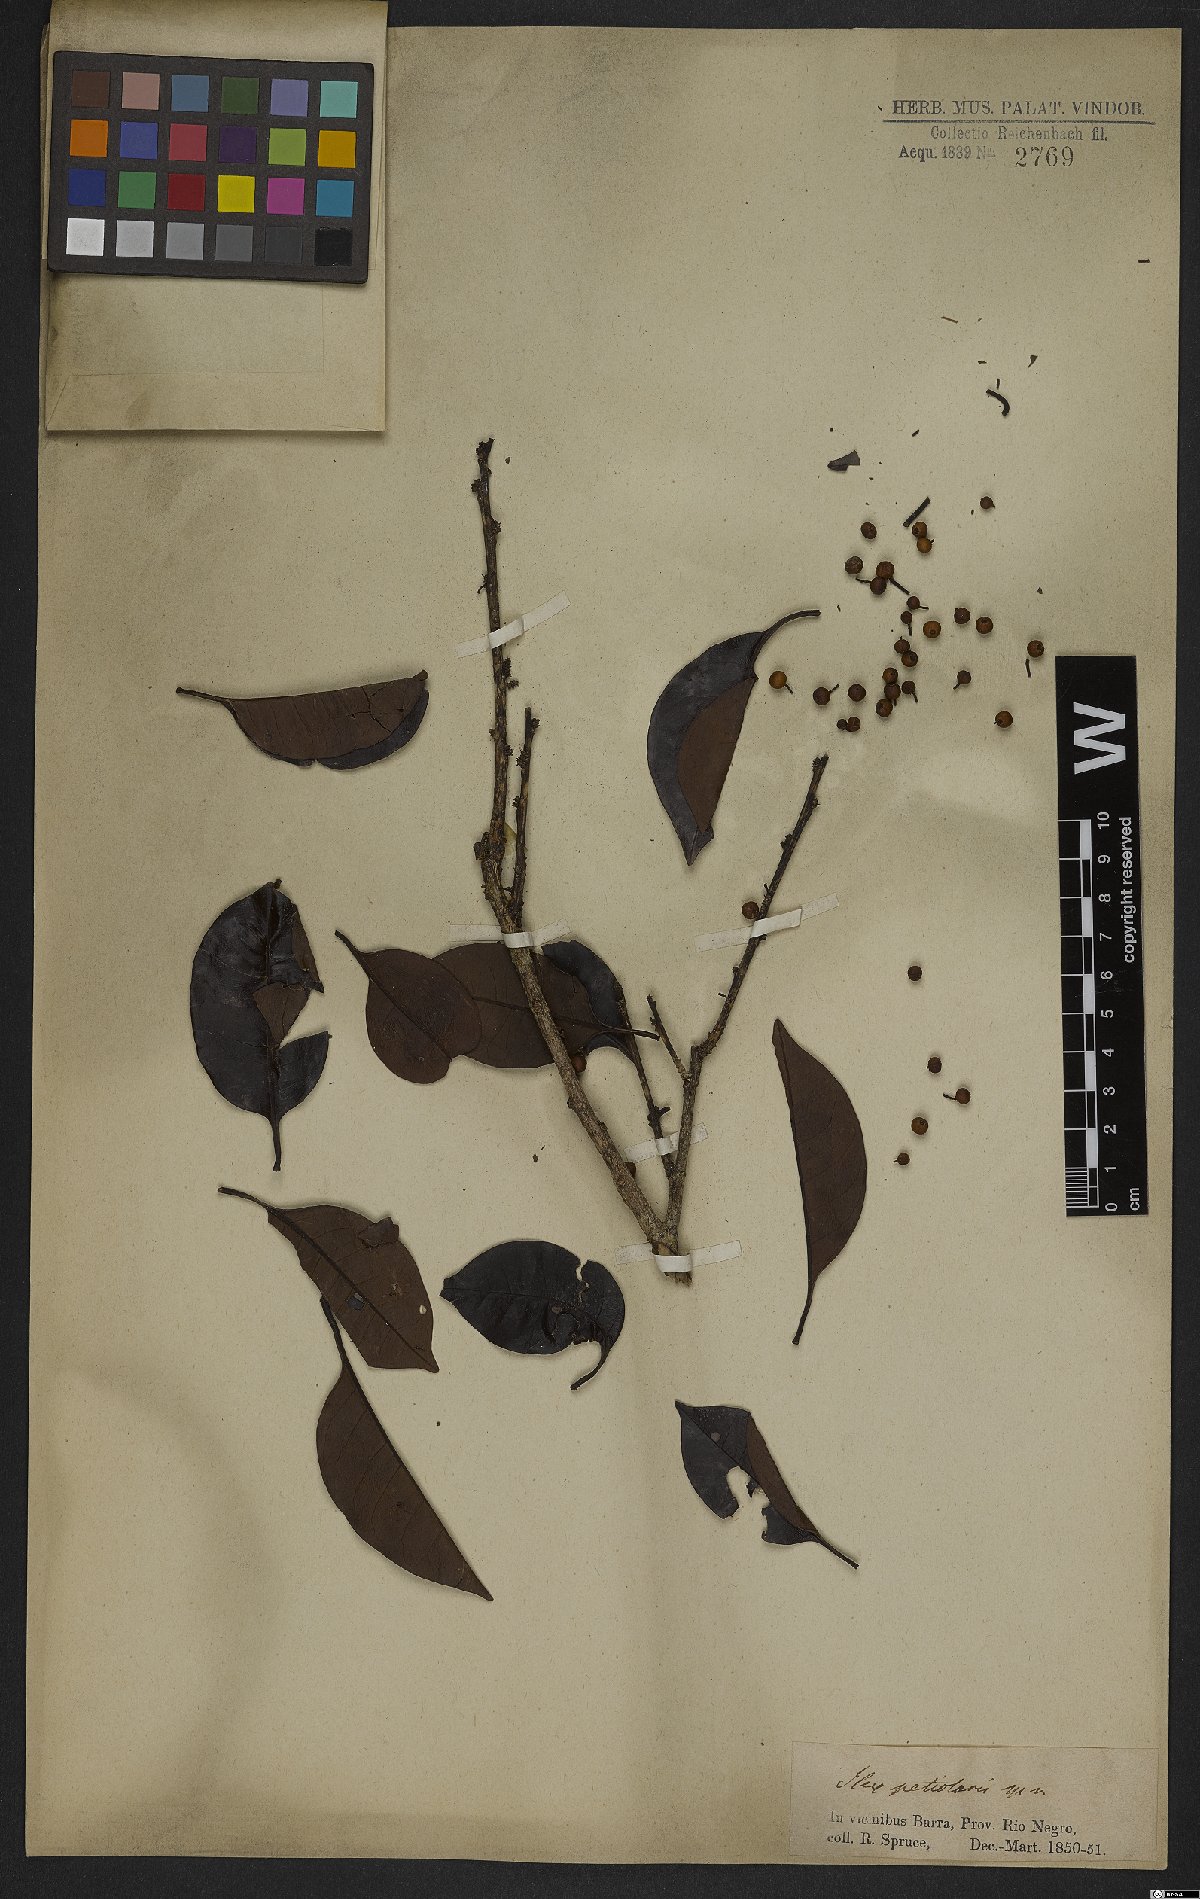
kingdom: Plantae
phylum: Tracheophyta
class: Magnoliopsida
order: Aquifoliales
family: Aquifoliaceae
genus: Ilex
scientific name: Ilex petiolaris
